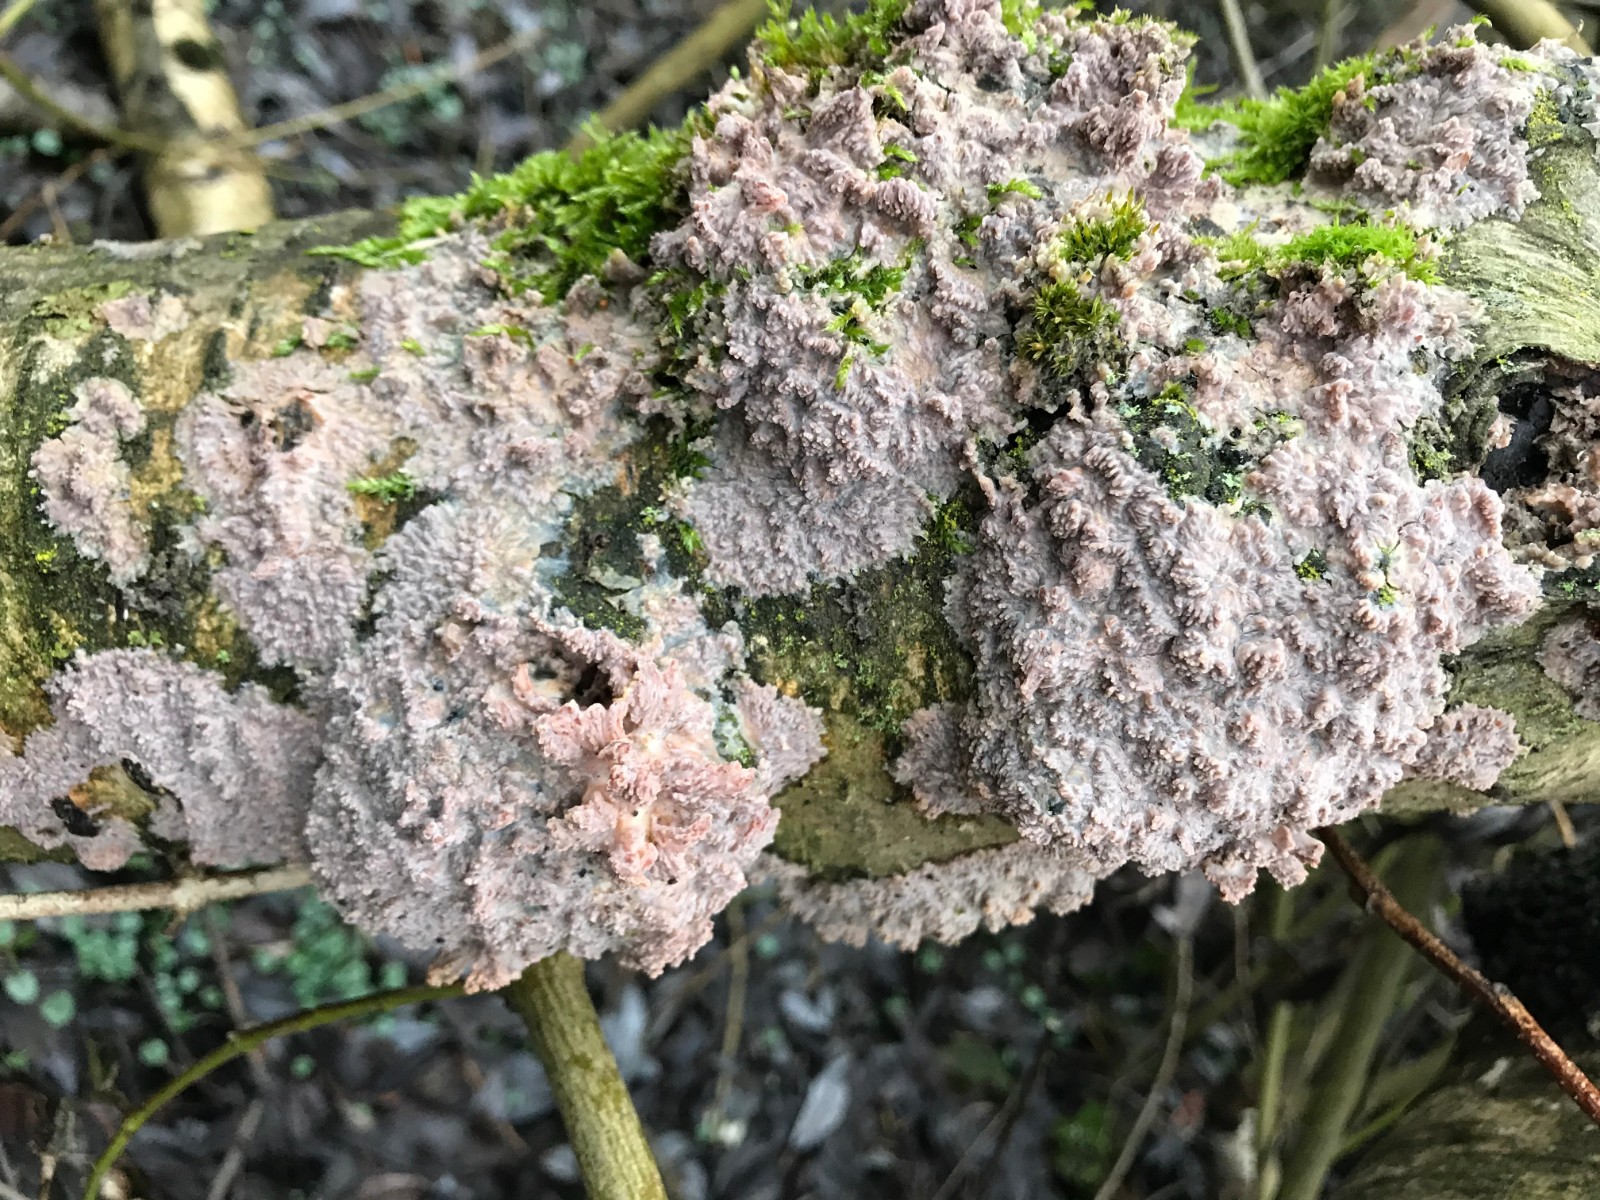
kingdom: Fungi
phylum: Basidiomycota
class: Agaricomycetes
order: Polyporales
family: Meruliaceae
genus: Phlebia
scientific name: Phlebia radiata
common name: stråle-åresvamp
